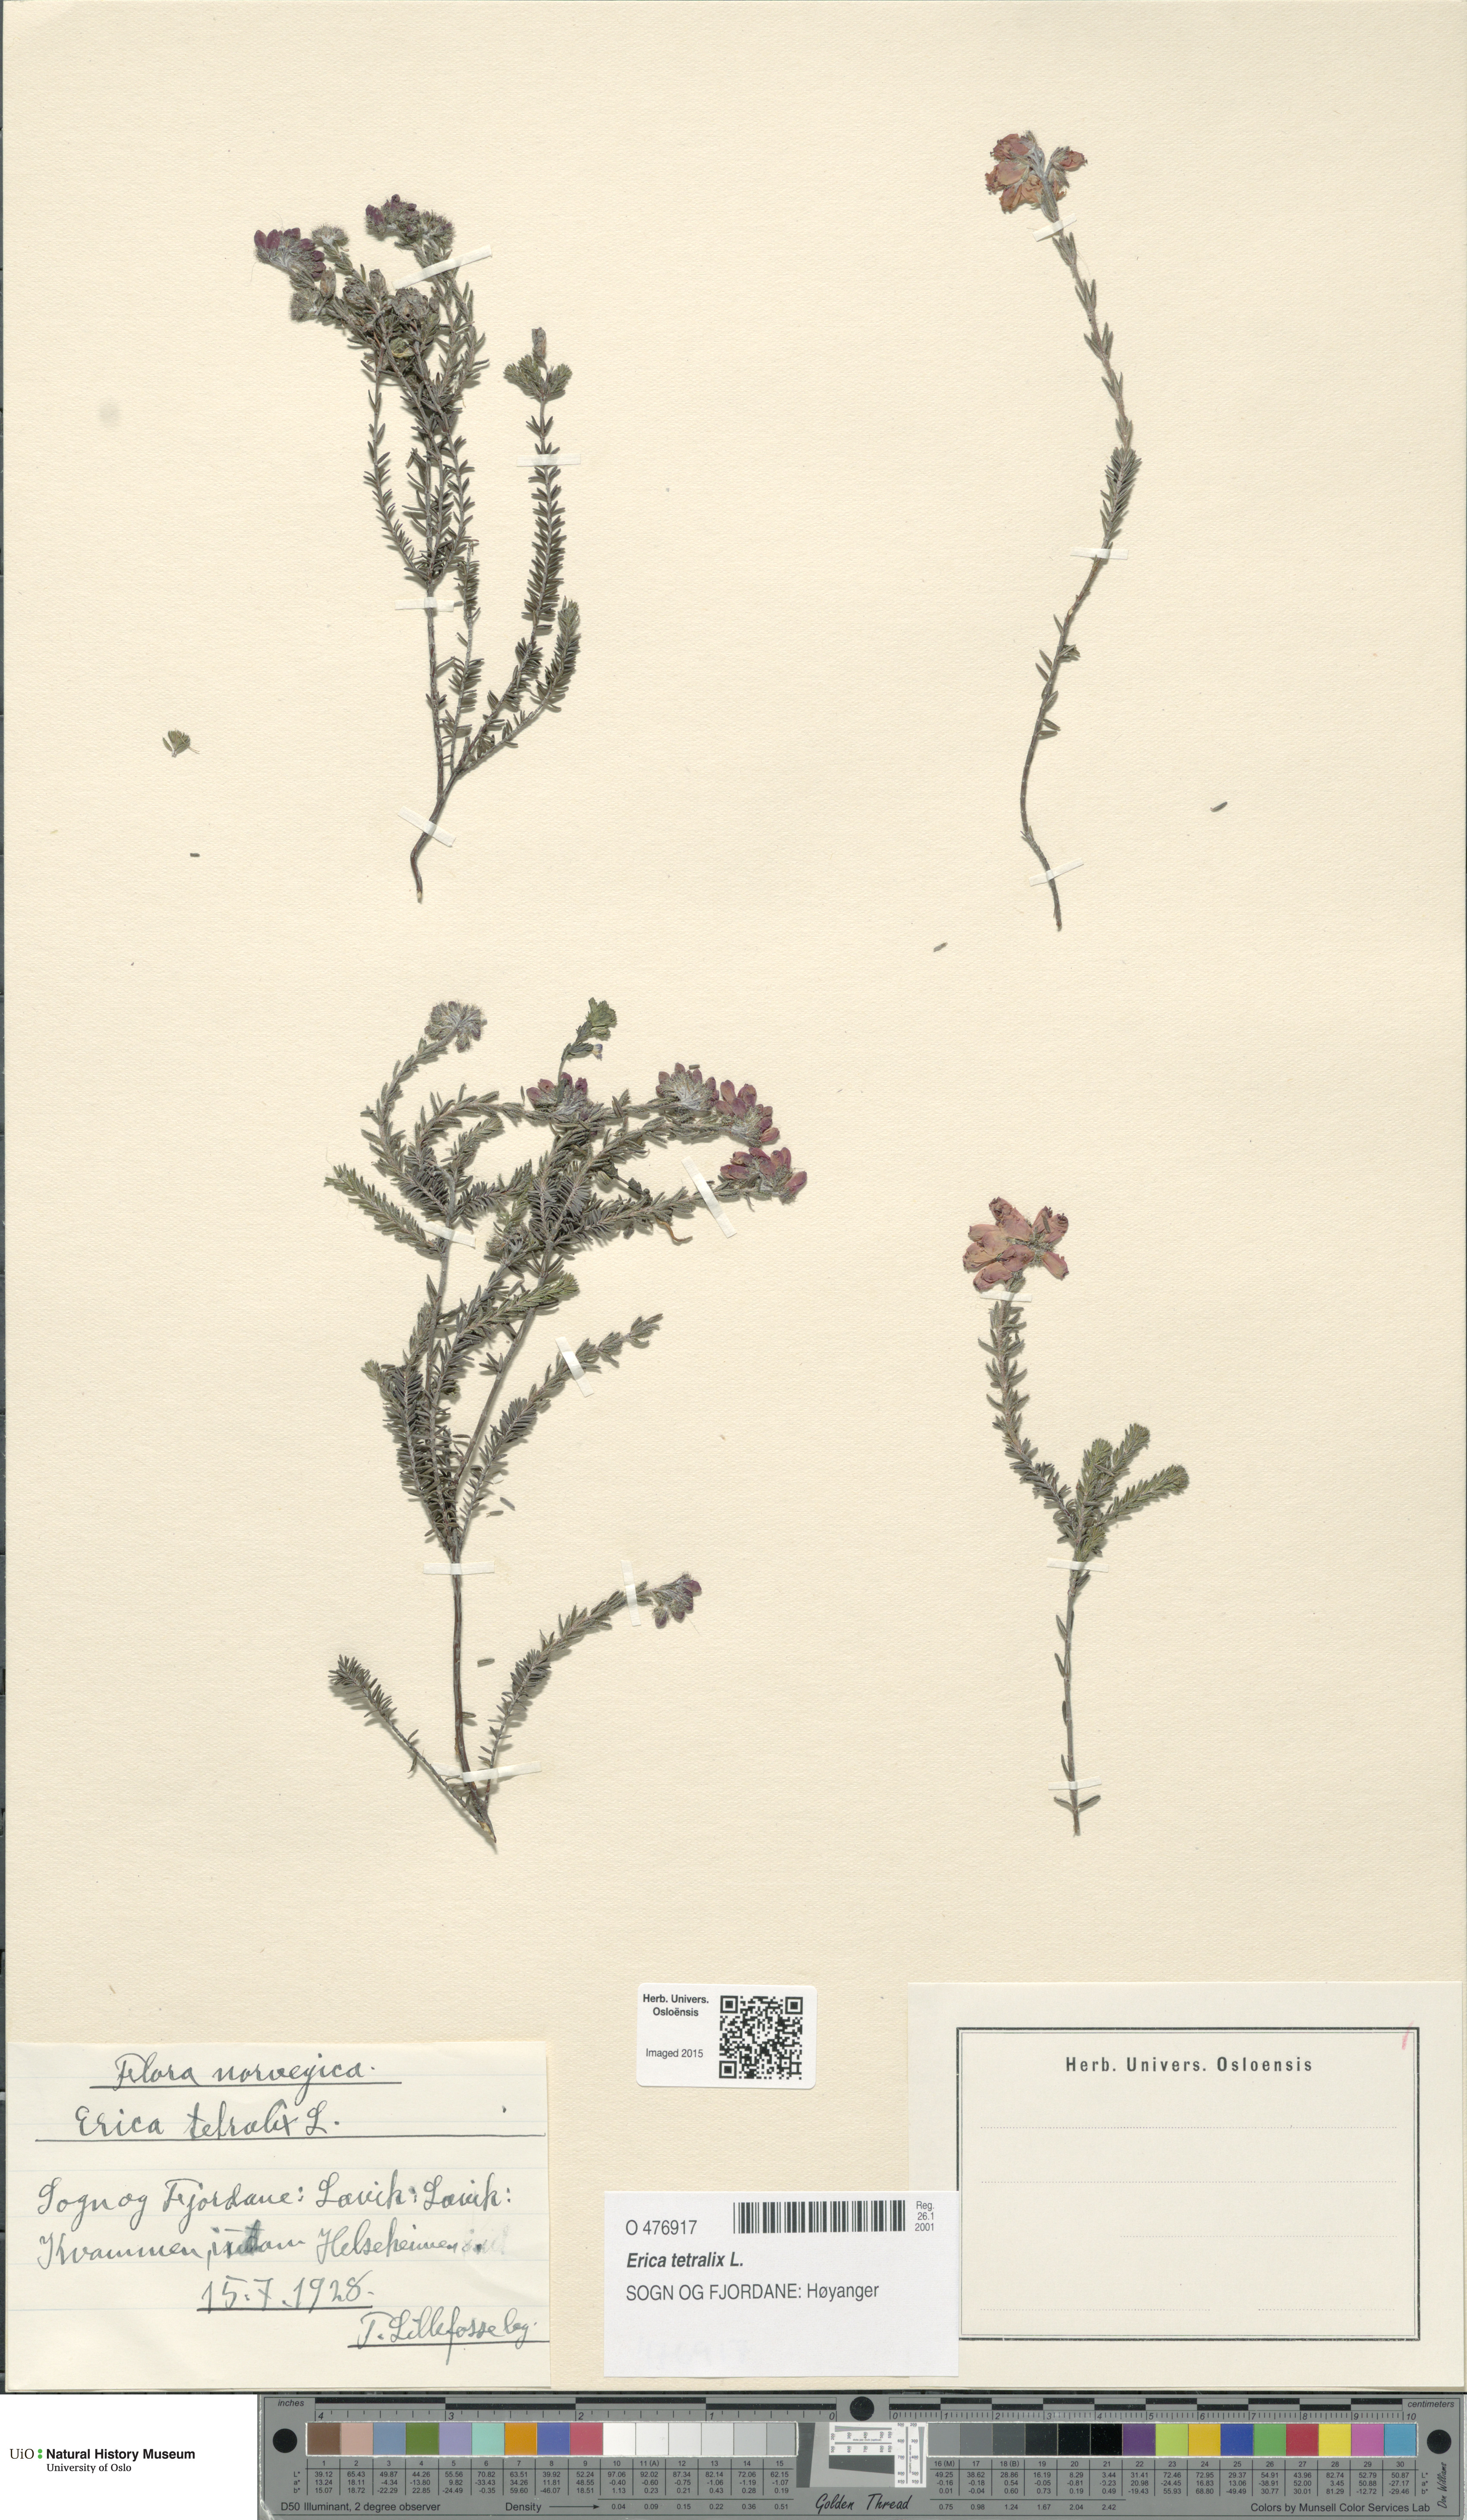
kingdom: Plantae
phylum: Tracheophyta
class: Magnoliopsida
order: Ericales
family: Ericaceae
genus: Erica
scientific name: Erica tetralix
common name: Cross-leaved heath
